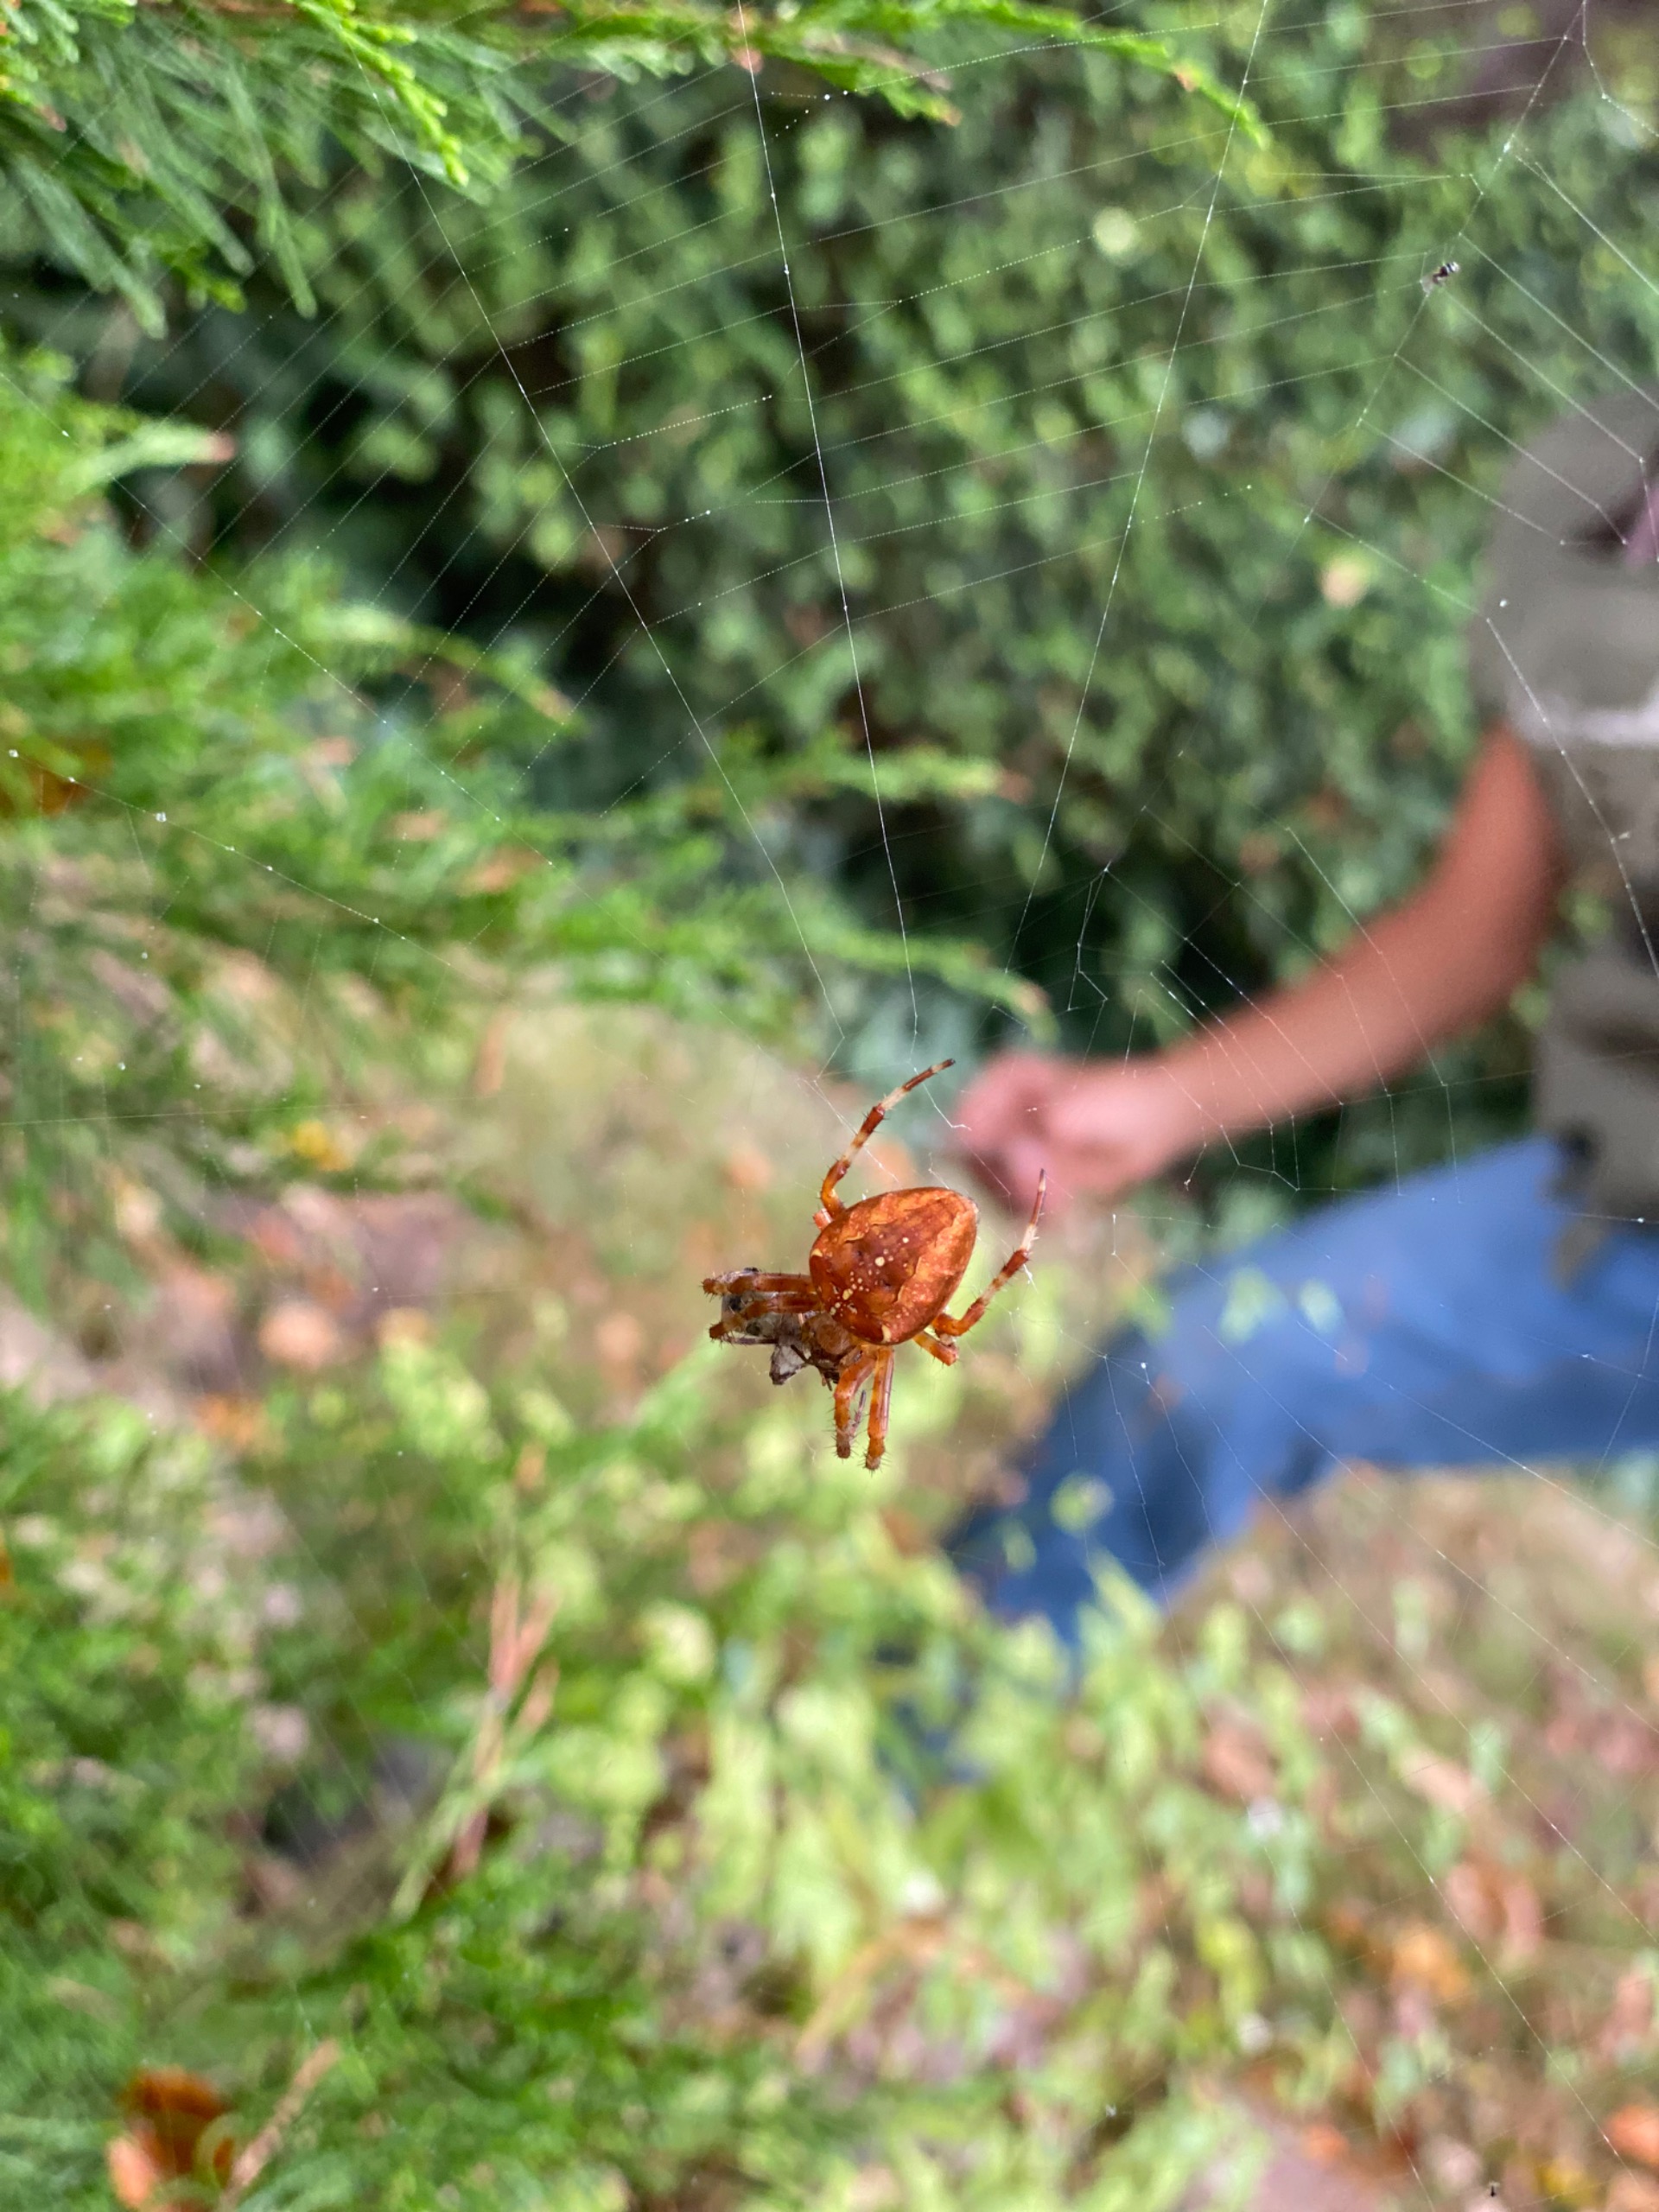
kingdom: Animalia
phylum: Arthropoda
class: Arachnida
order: Araneae
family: Araneidae
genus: Araneus
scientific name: Araneus diadematus
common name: Korsedderkop
